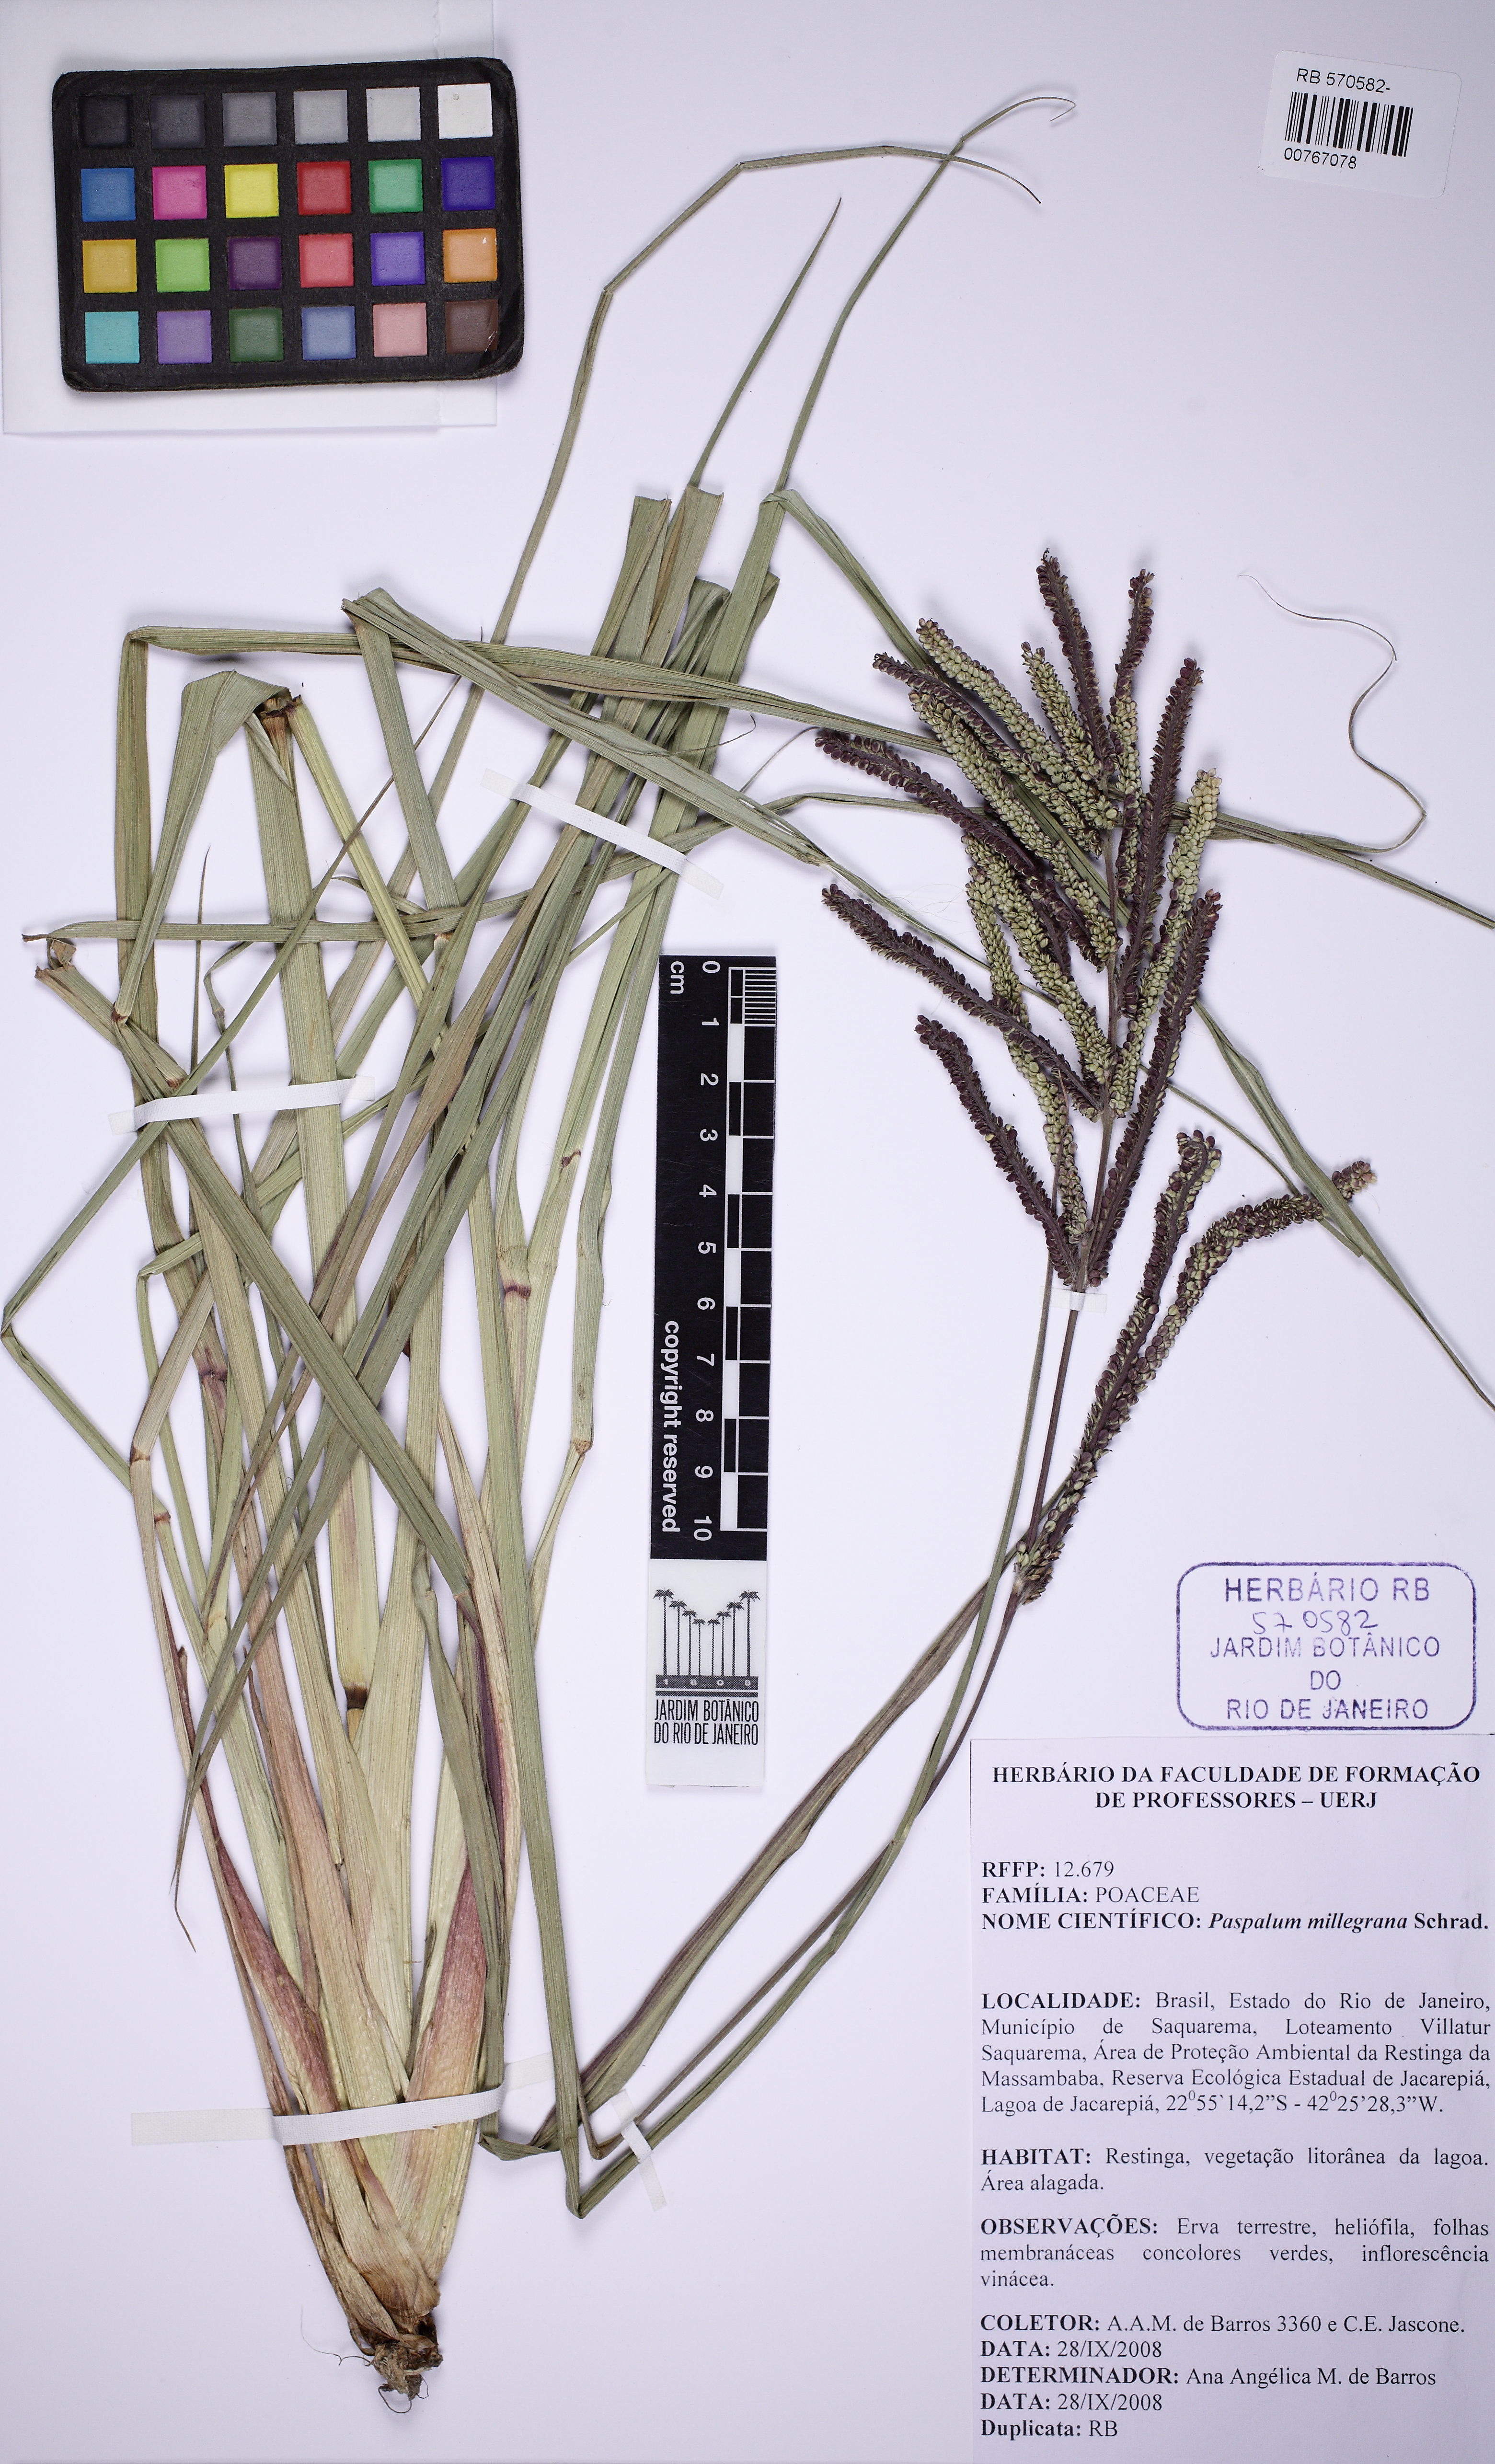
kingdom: Plantae
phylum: Tracheophyta
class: Liliopsida
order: Poales
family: Poaceae
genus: Paspalum
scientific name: Paspalum millegrana
